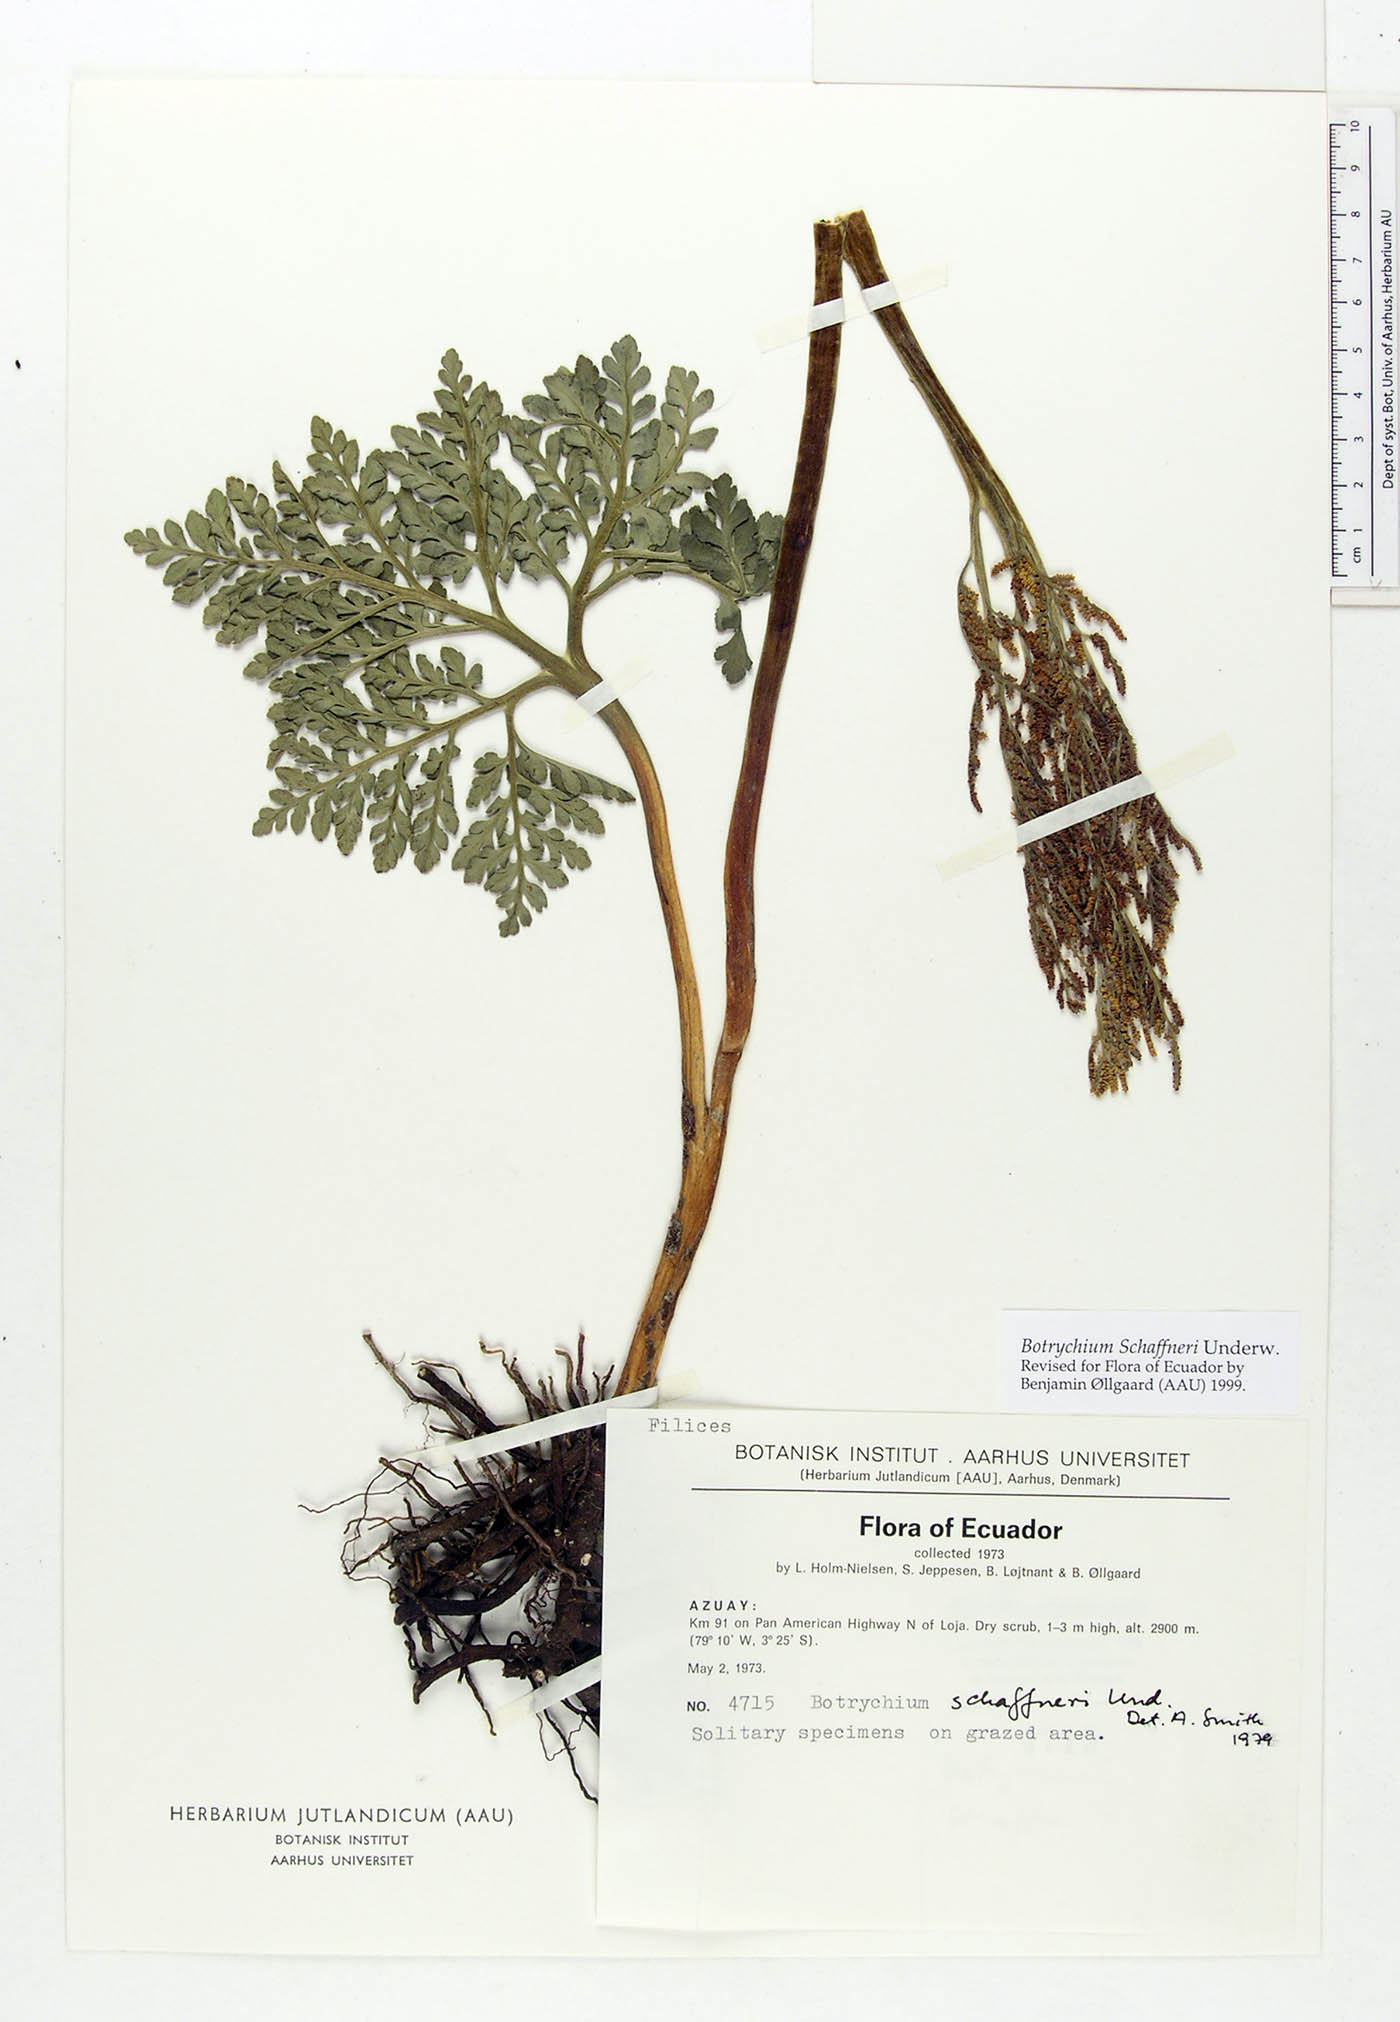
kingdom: Plantae
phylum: Tracheophyta
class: Polypodiopsida
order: Ophioglossales
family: Ophioglossaceae
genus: Sceptridium
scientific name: Sceptridium schaffneri
